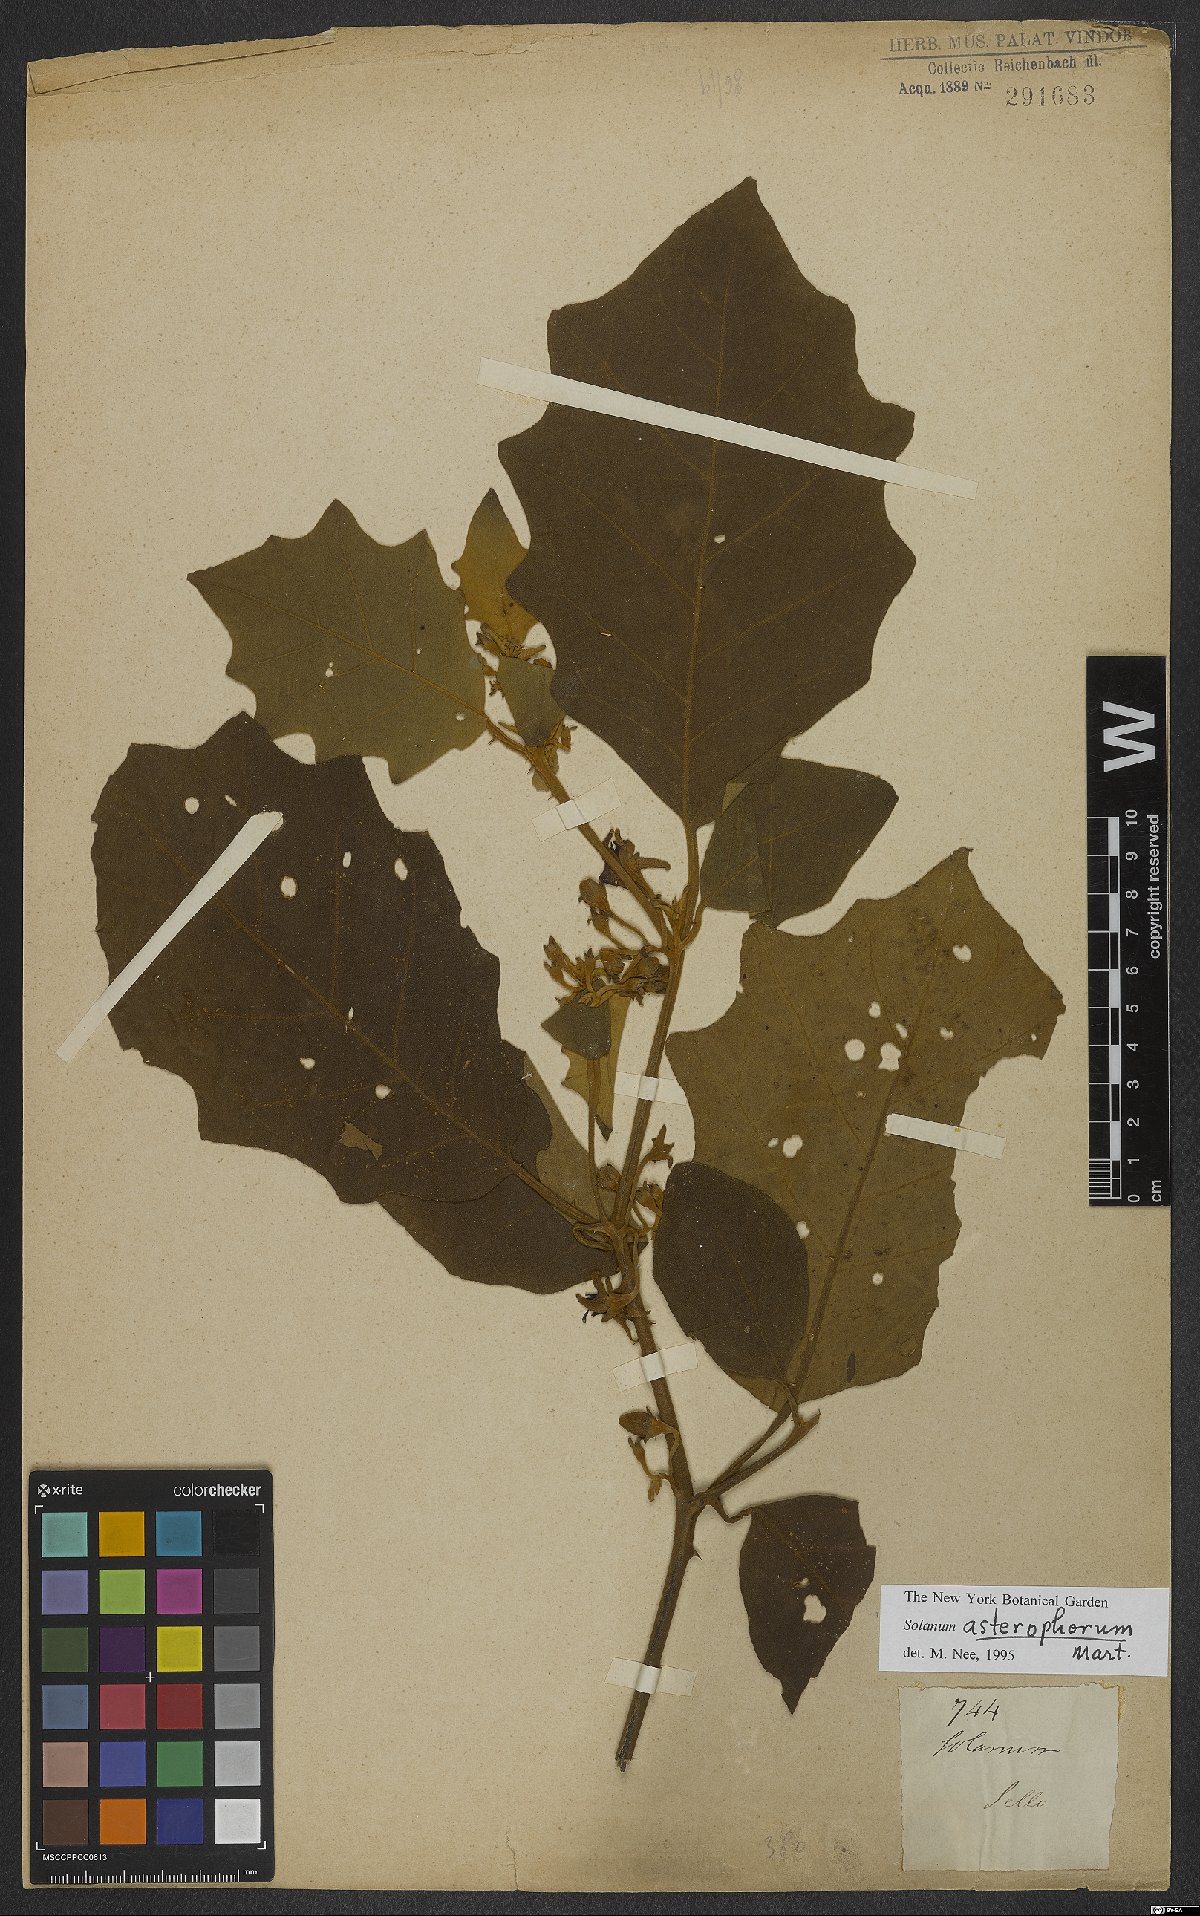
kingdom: Plantae
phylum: Tracheophyta
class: Magnoliopsida
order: Solanales
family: Solanaceae
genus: Solanum
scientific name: Solanum asterophorum
